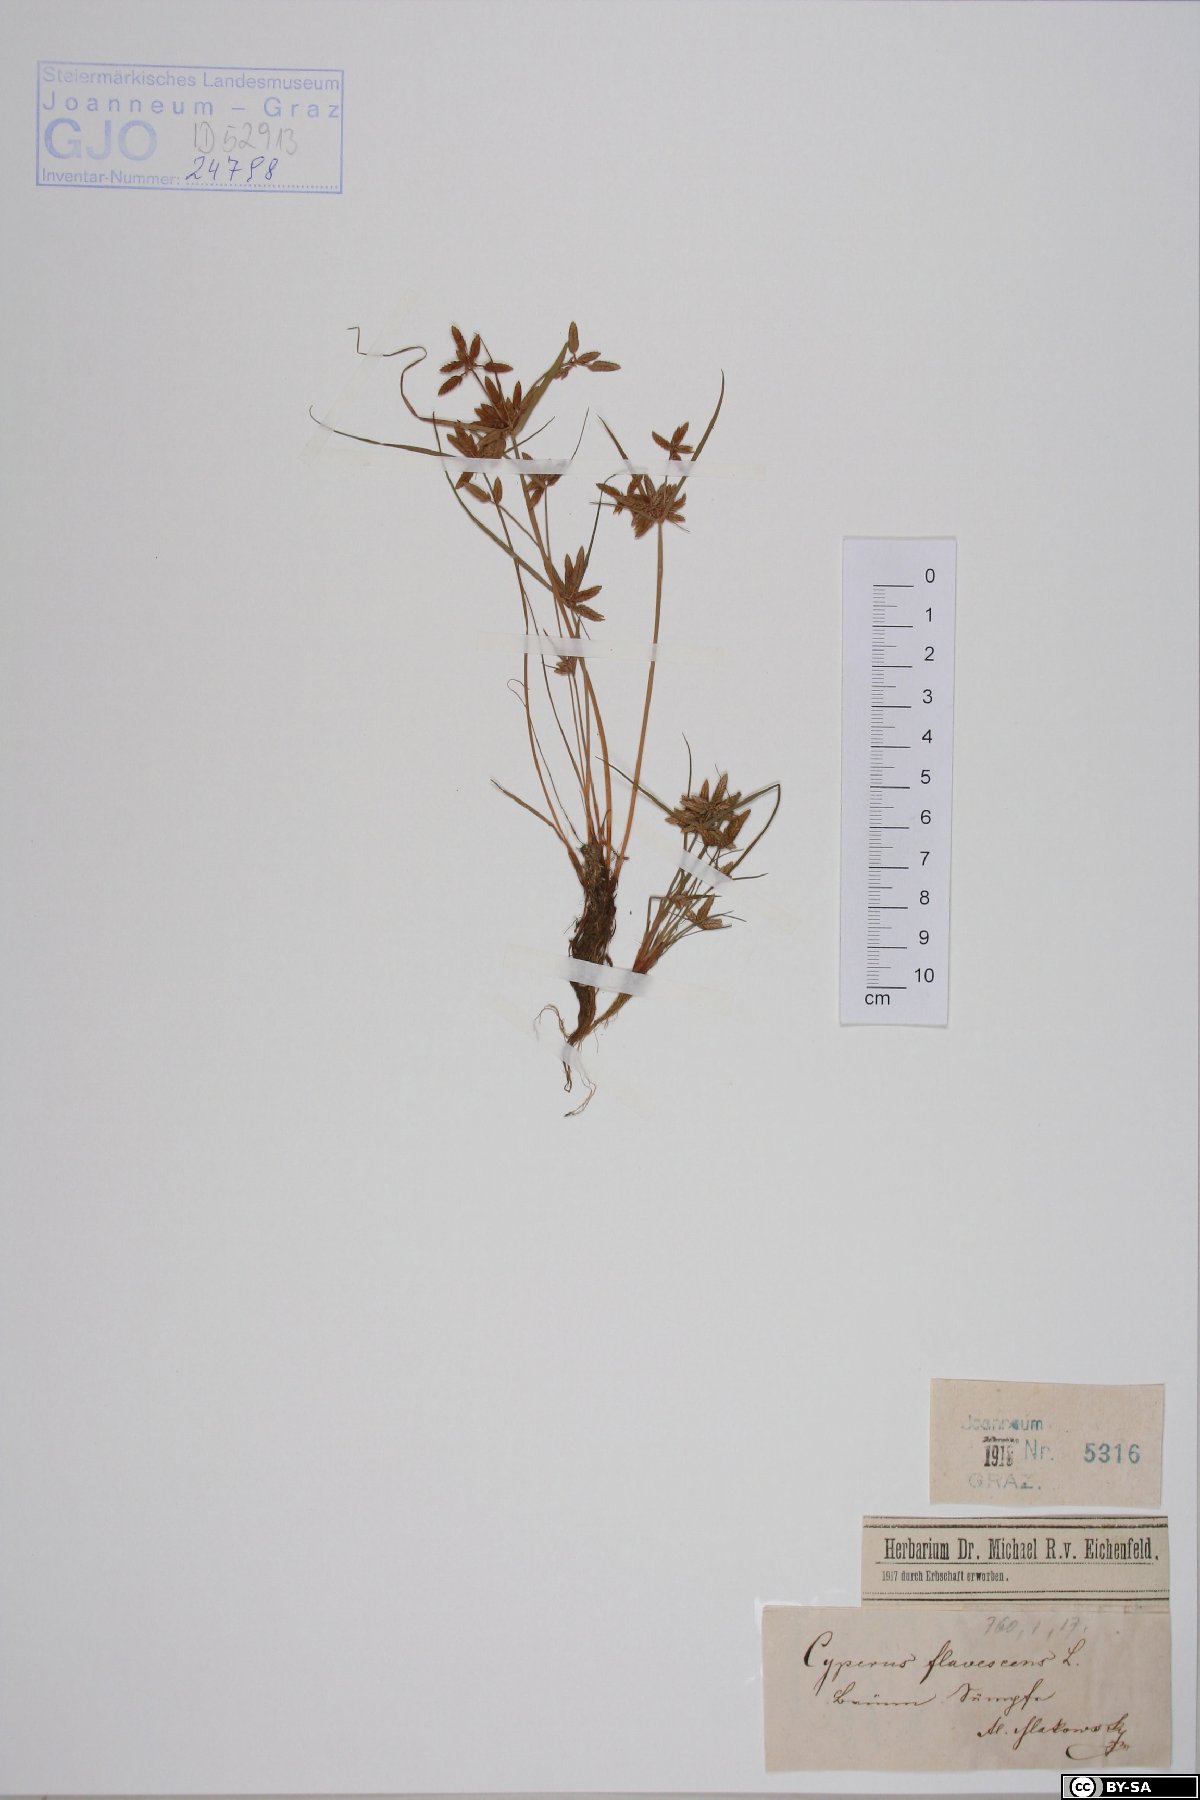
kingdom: Plantae
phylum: Tracheophyta
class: Liliopsida
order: Poales
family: Cyperaceae
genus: Cyperus
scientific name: Cyperus flavescens
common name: Yellow galingale
